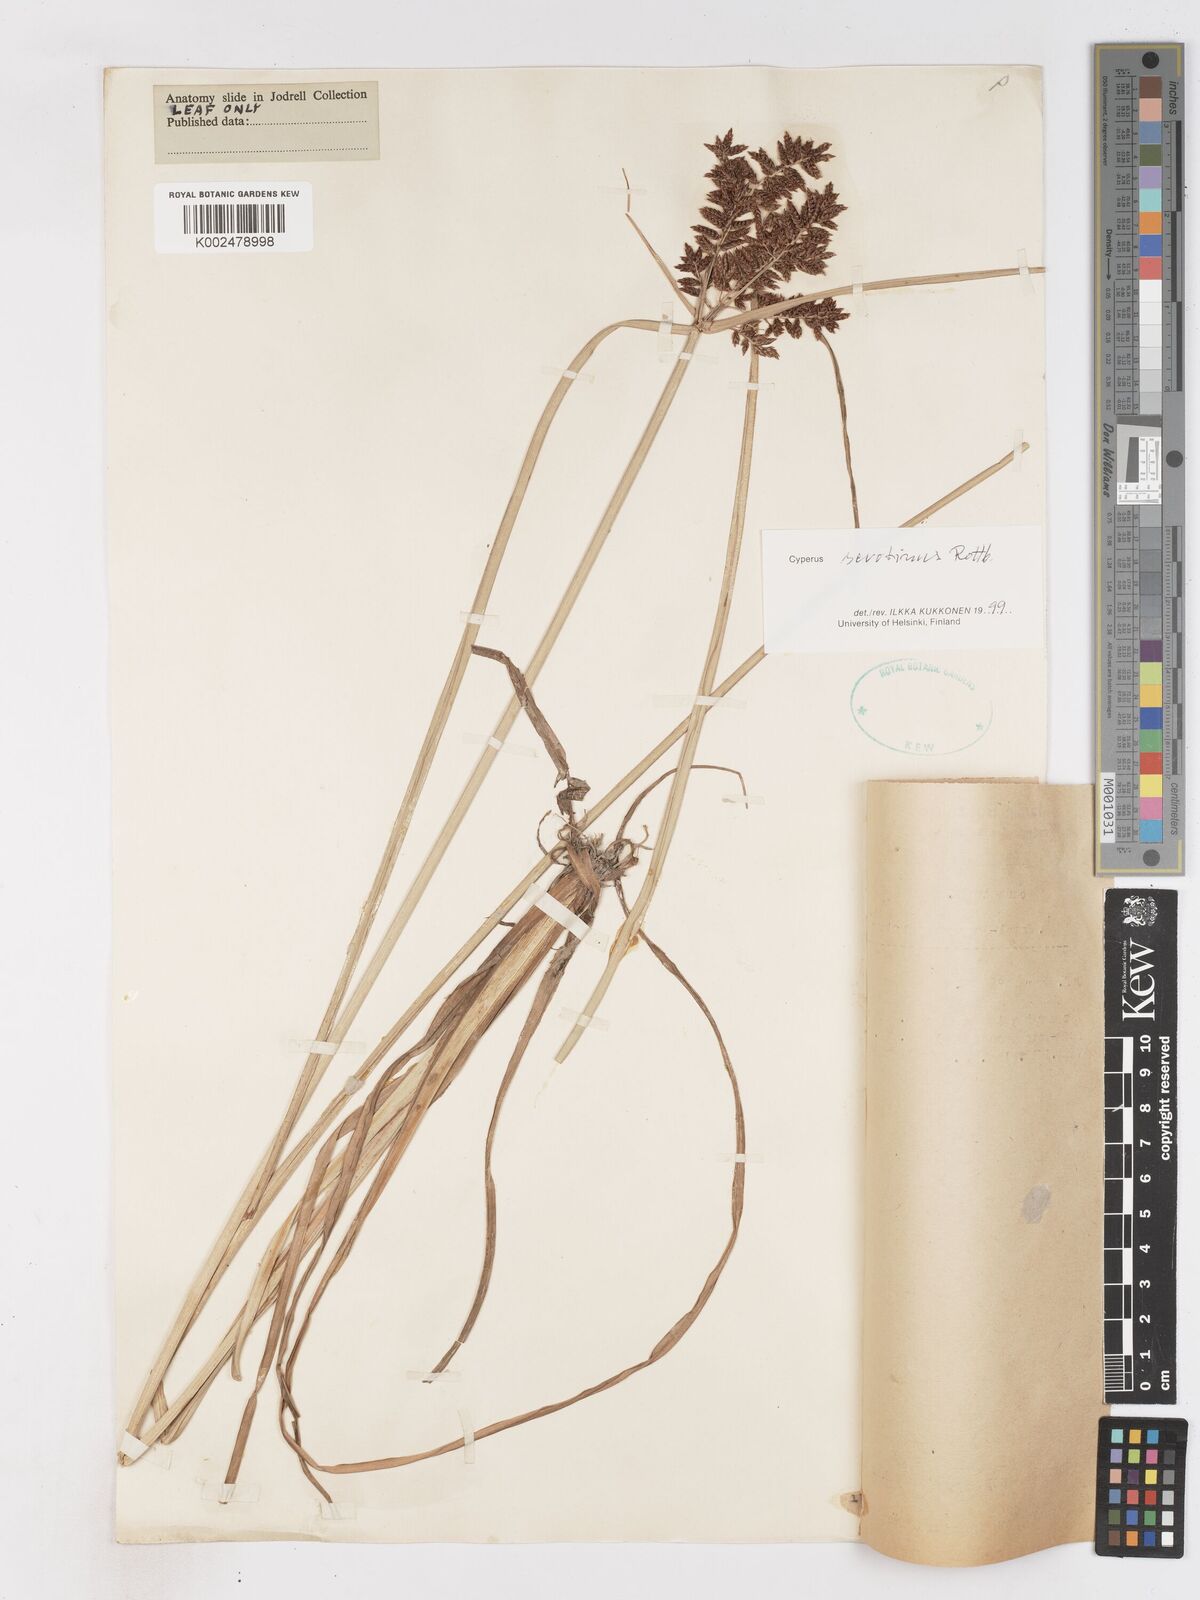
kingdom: Plantae
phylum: Tracheophyta
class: Liliopsida
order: Poales
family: Cyperaceae
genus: Cyperus
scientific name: Cyperus serotinus
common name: Tidalmarsh flatsedge
